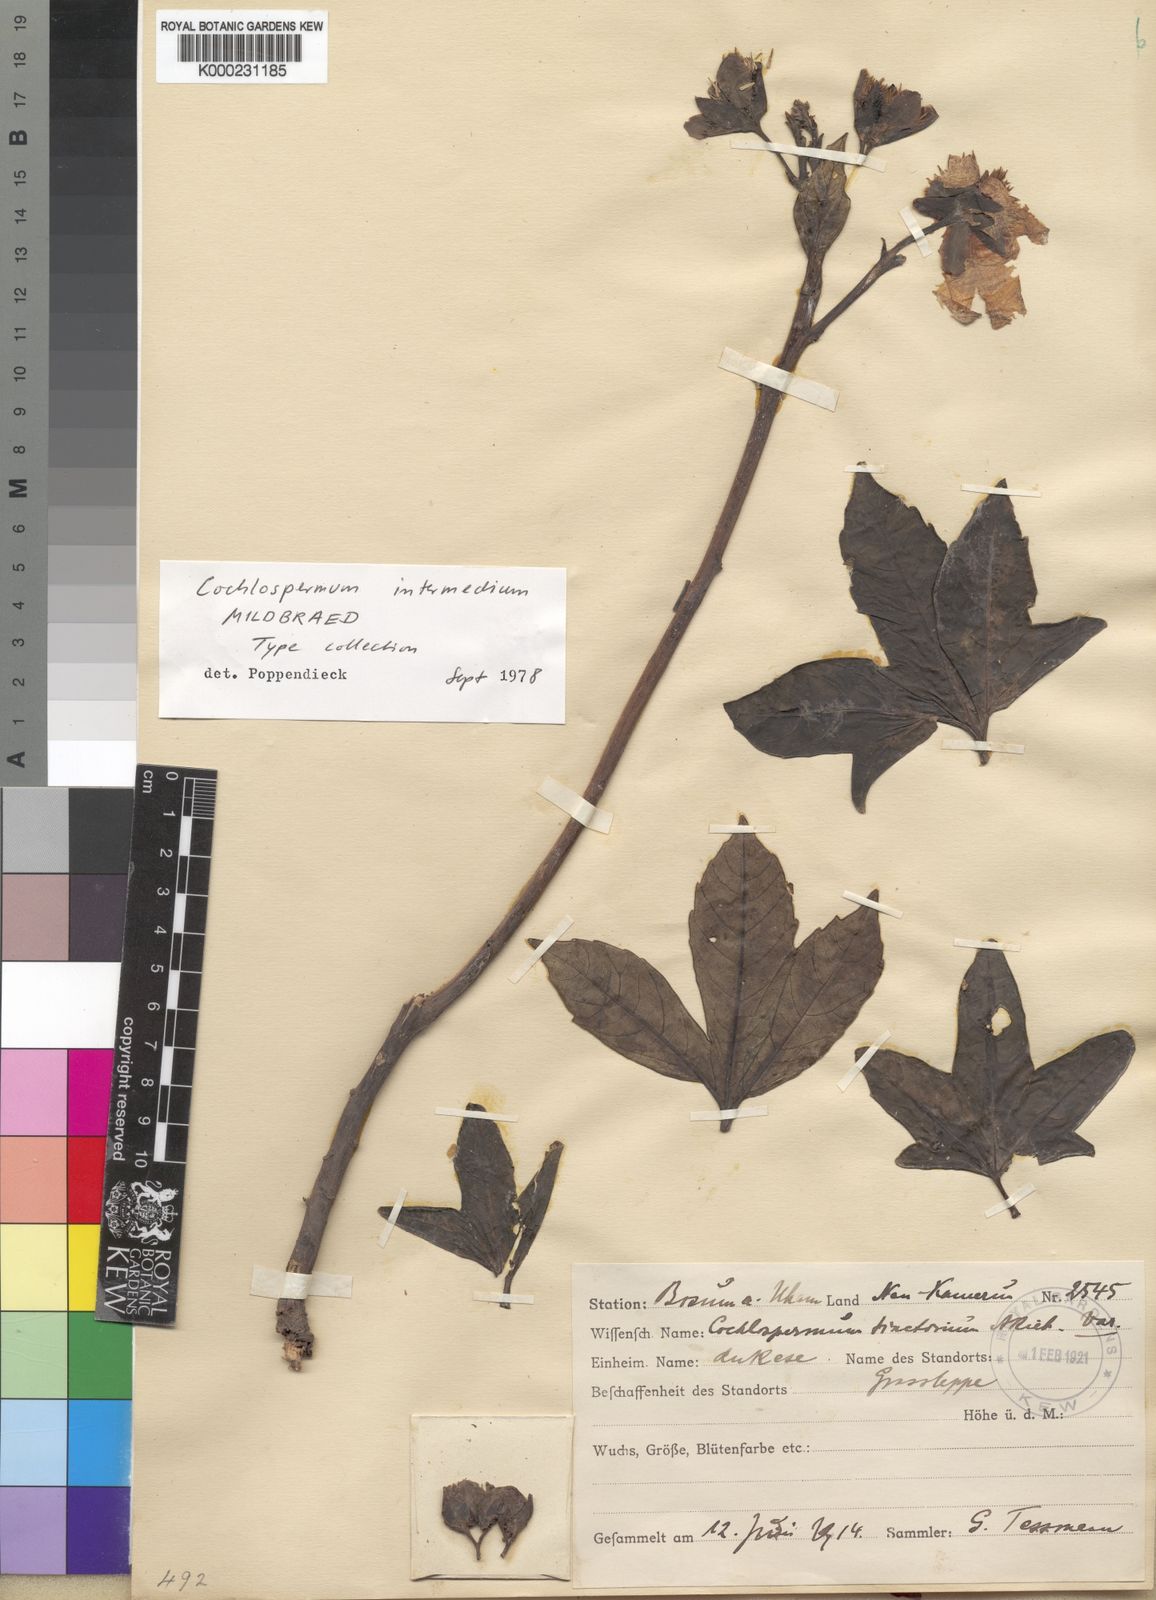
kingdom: Plantae
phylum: Tracheophyta
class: Magnoliopsida
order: Malvales
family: Cochlospermaceae
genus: Cochlospermum
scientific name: Cochlospermum intermedium
